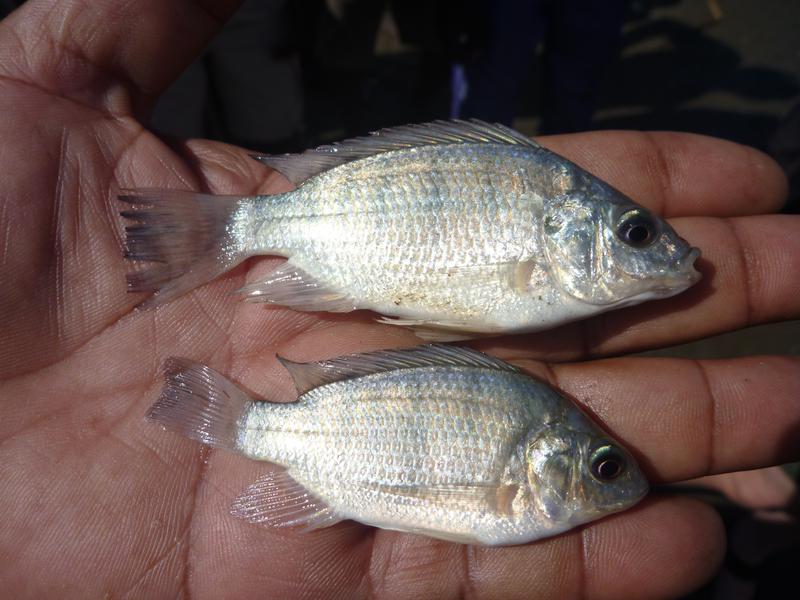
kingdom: Animalia
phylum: Chordata
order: Perciformes
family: Cichlidae
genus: Oreochromis
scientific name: Oreochromis rukwaensis
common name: Lake rukwa tilapia
